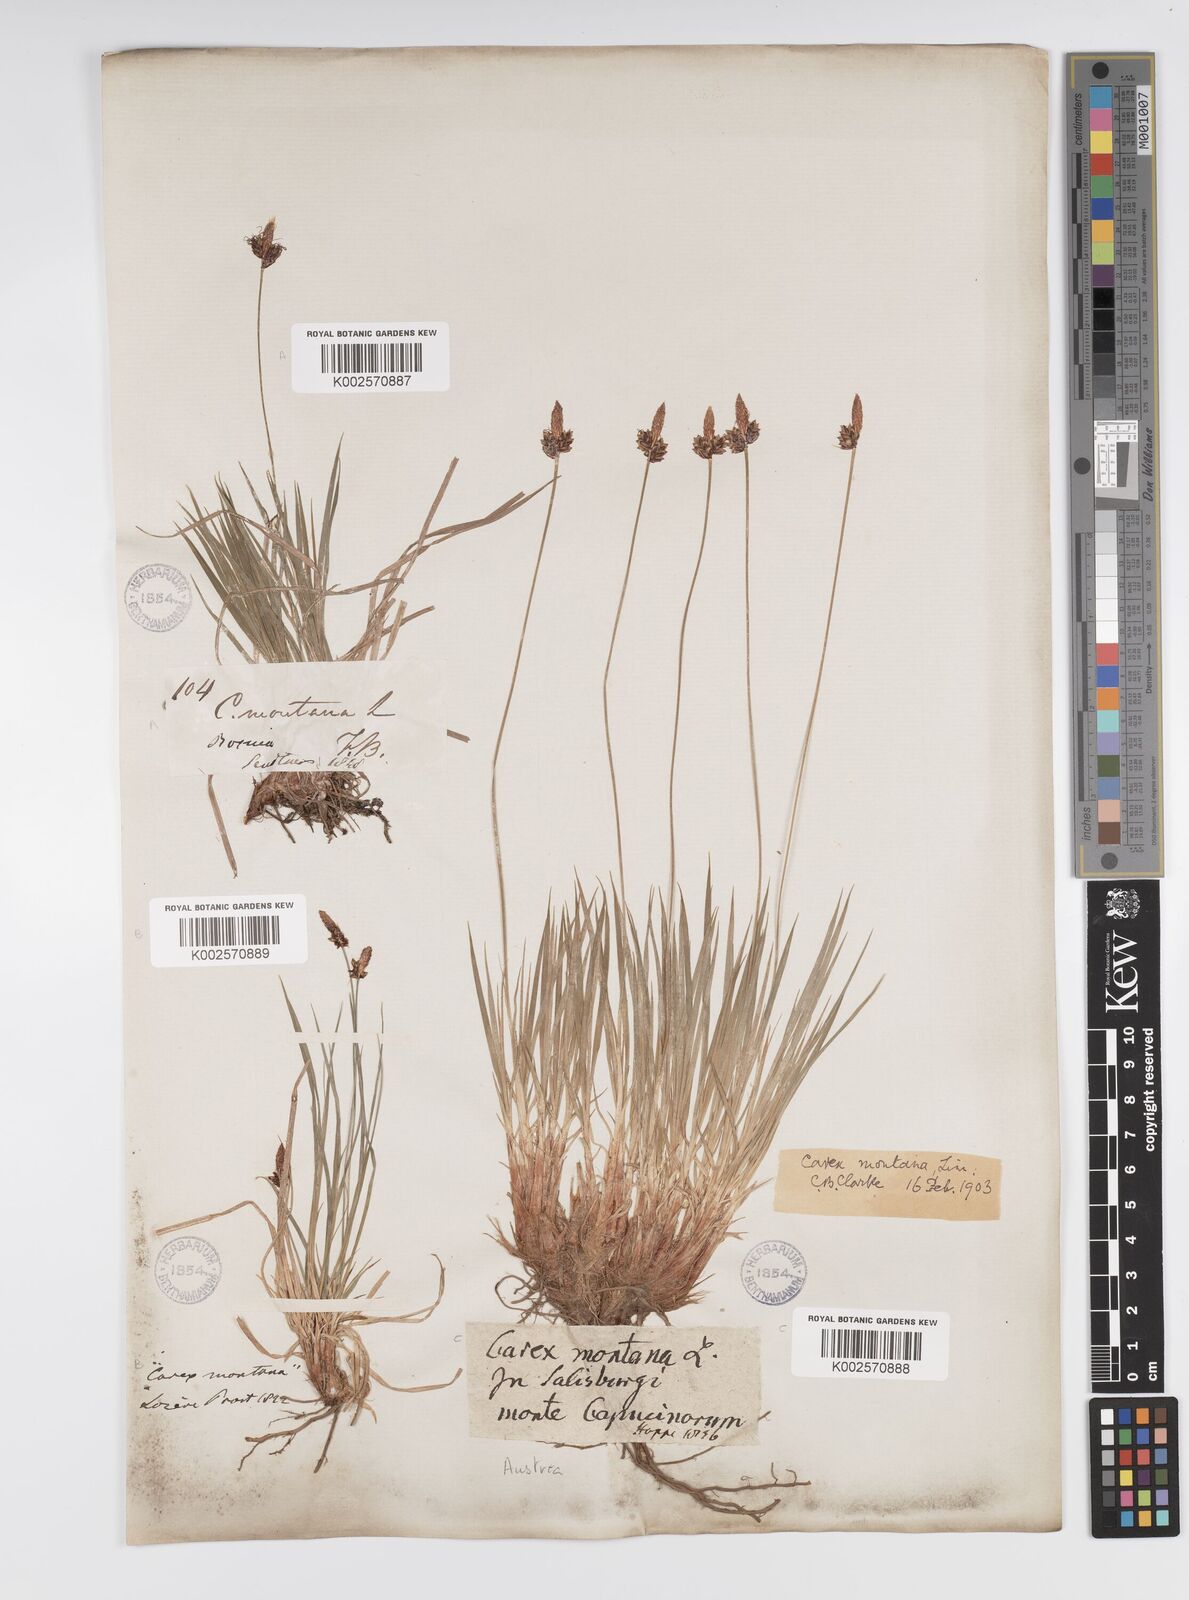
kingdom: Plantae
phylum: Tracheophyta
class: Liliopsida
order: Poales
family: Cyperaceae
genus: Carex
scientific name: Carex montana
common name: Soft-leaved sedge
